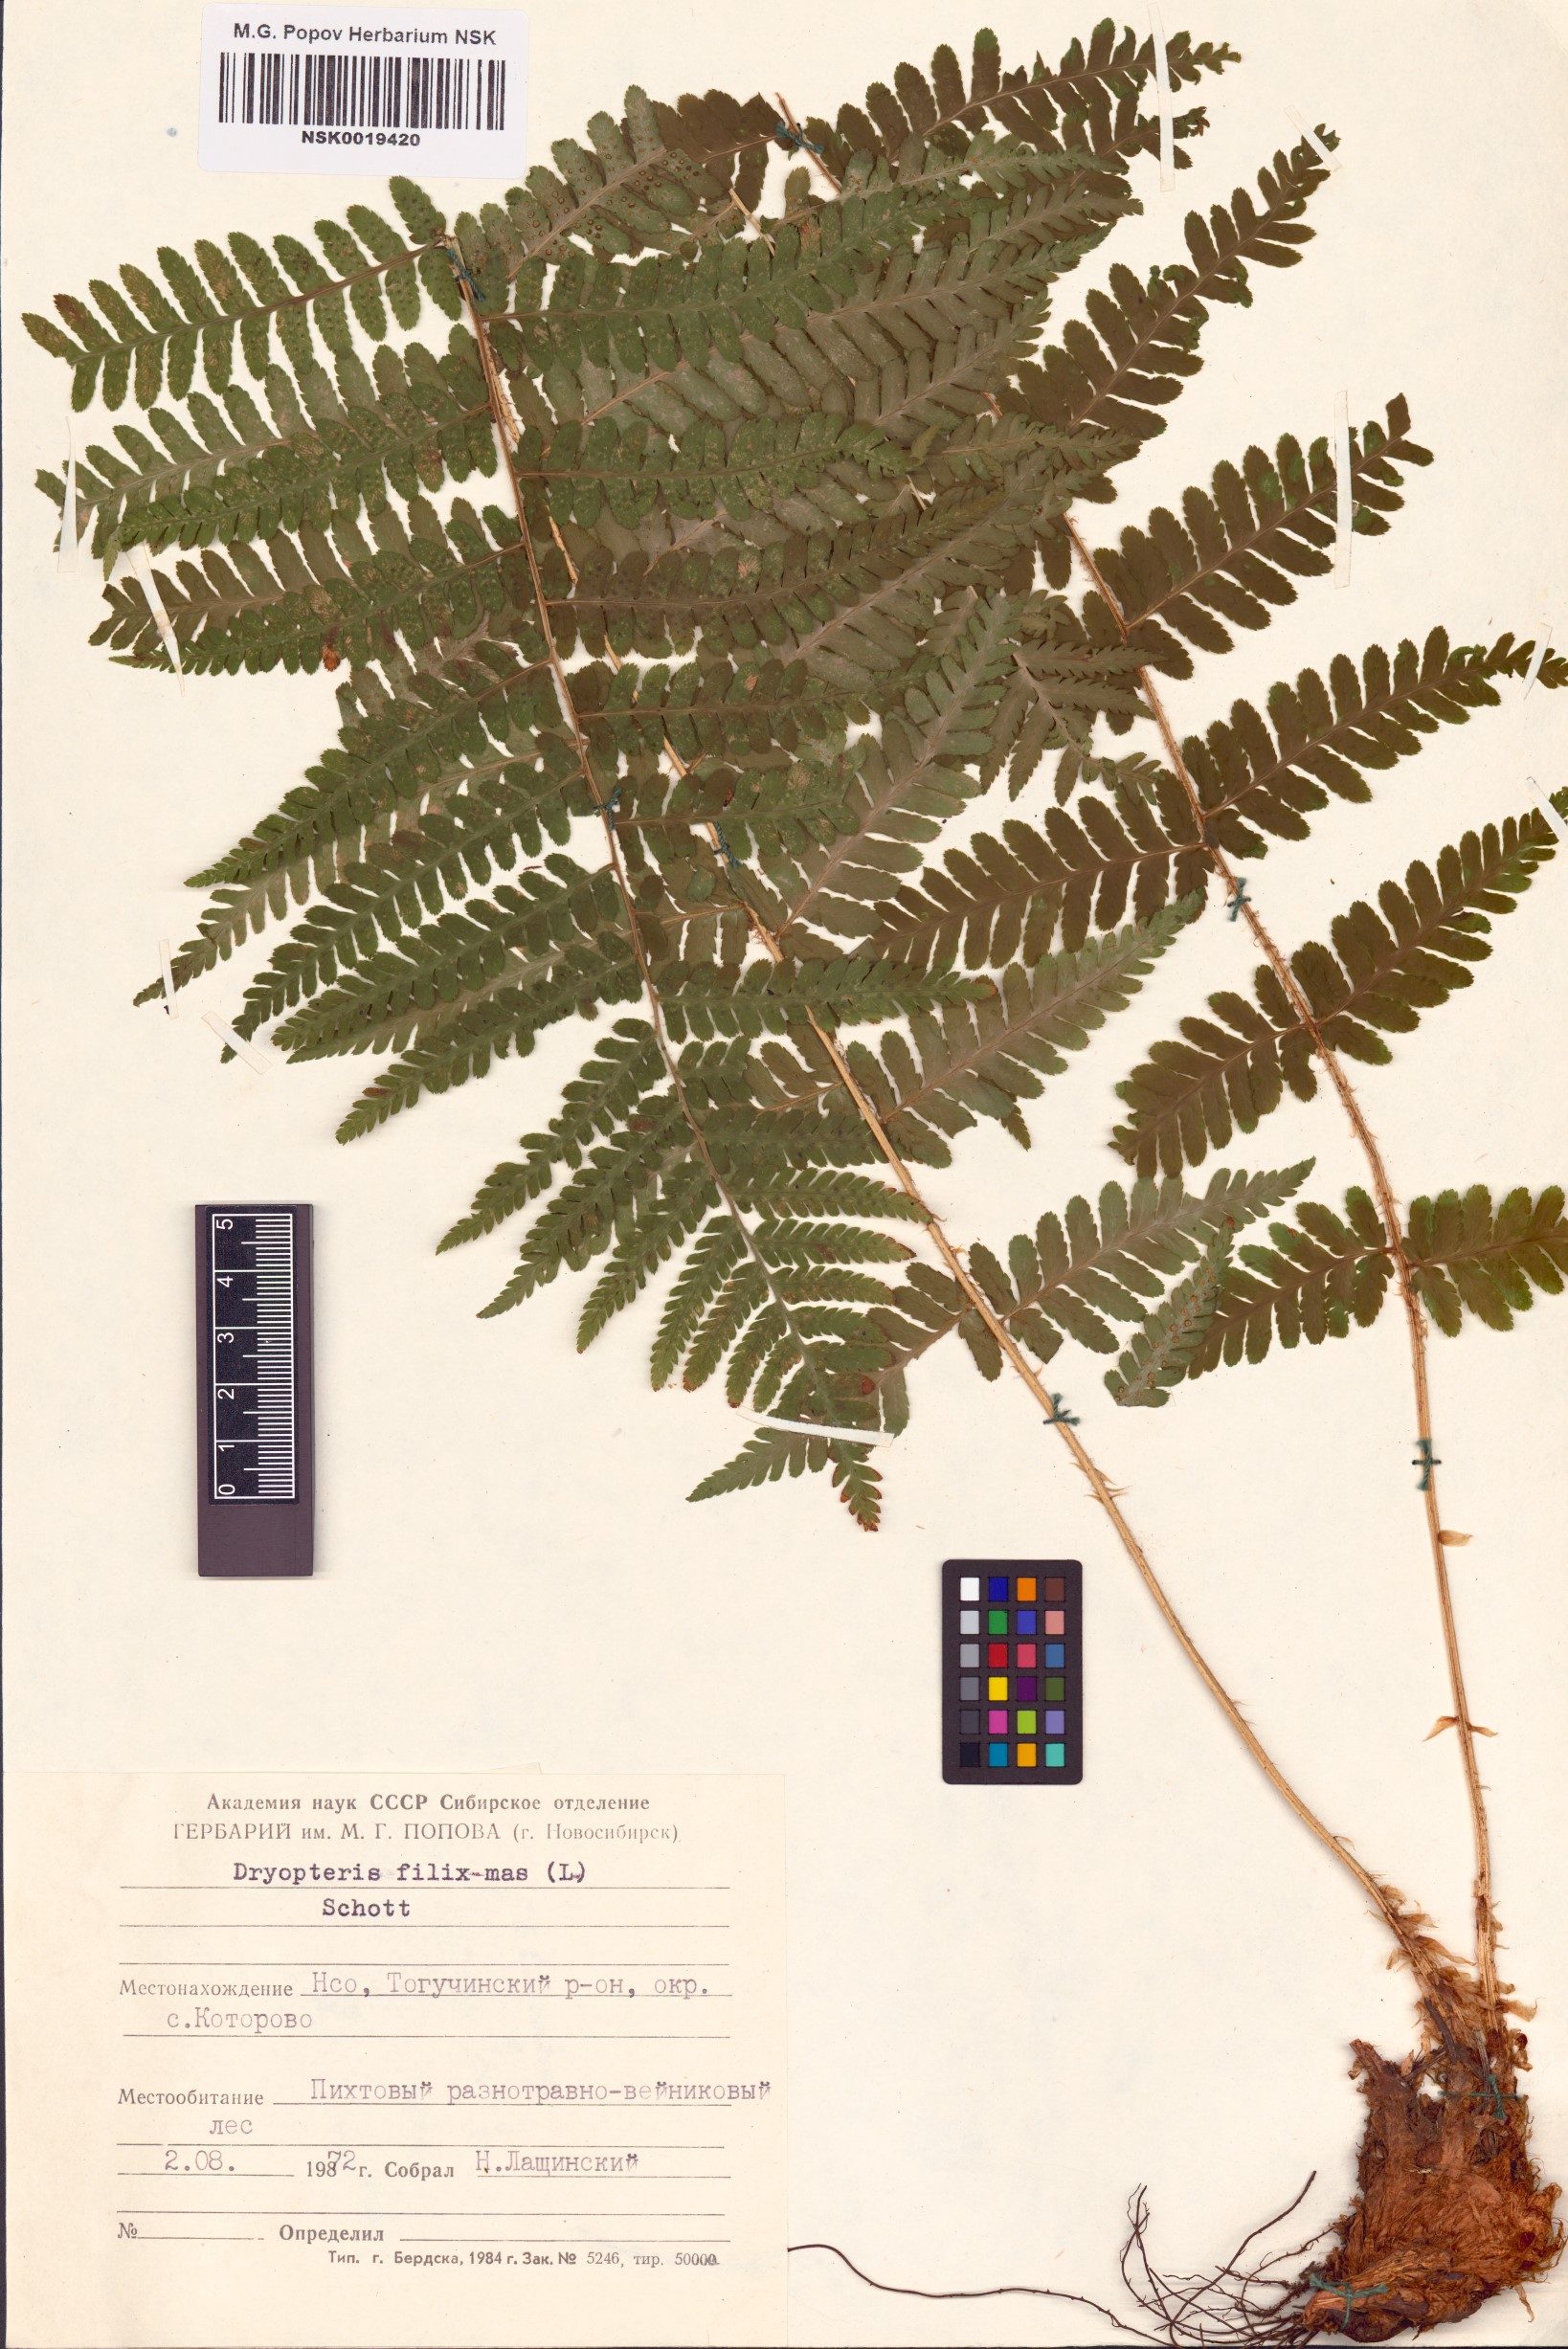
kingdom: Plantae
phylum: Tracheophyta
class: Polypodiopsida
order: Polypodiales
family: Dryopteridaceae
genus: Dryopteris
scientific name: Dryopteris filix-mas
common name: Male fern
